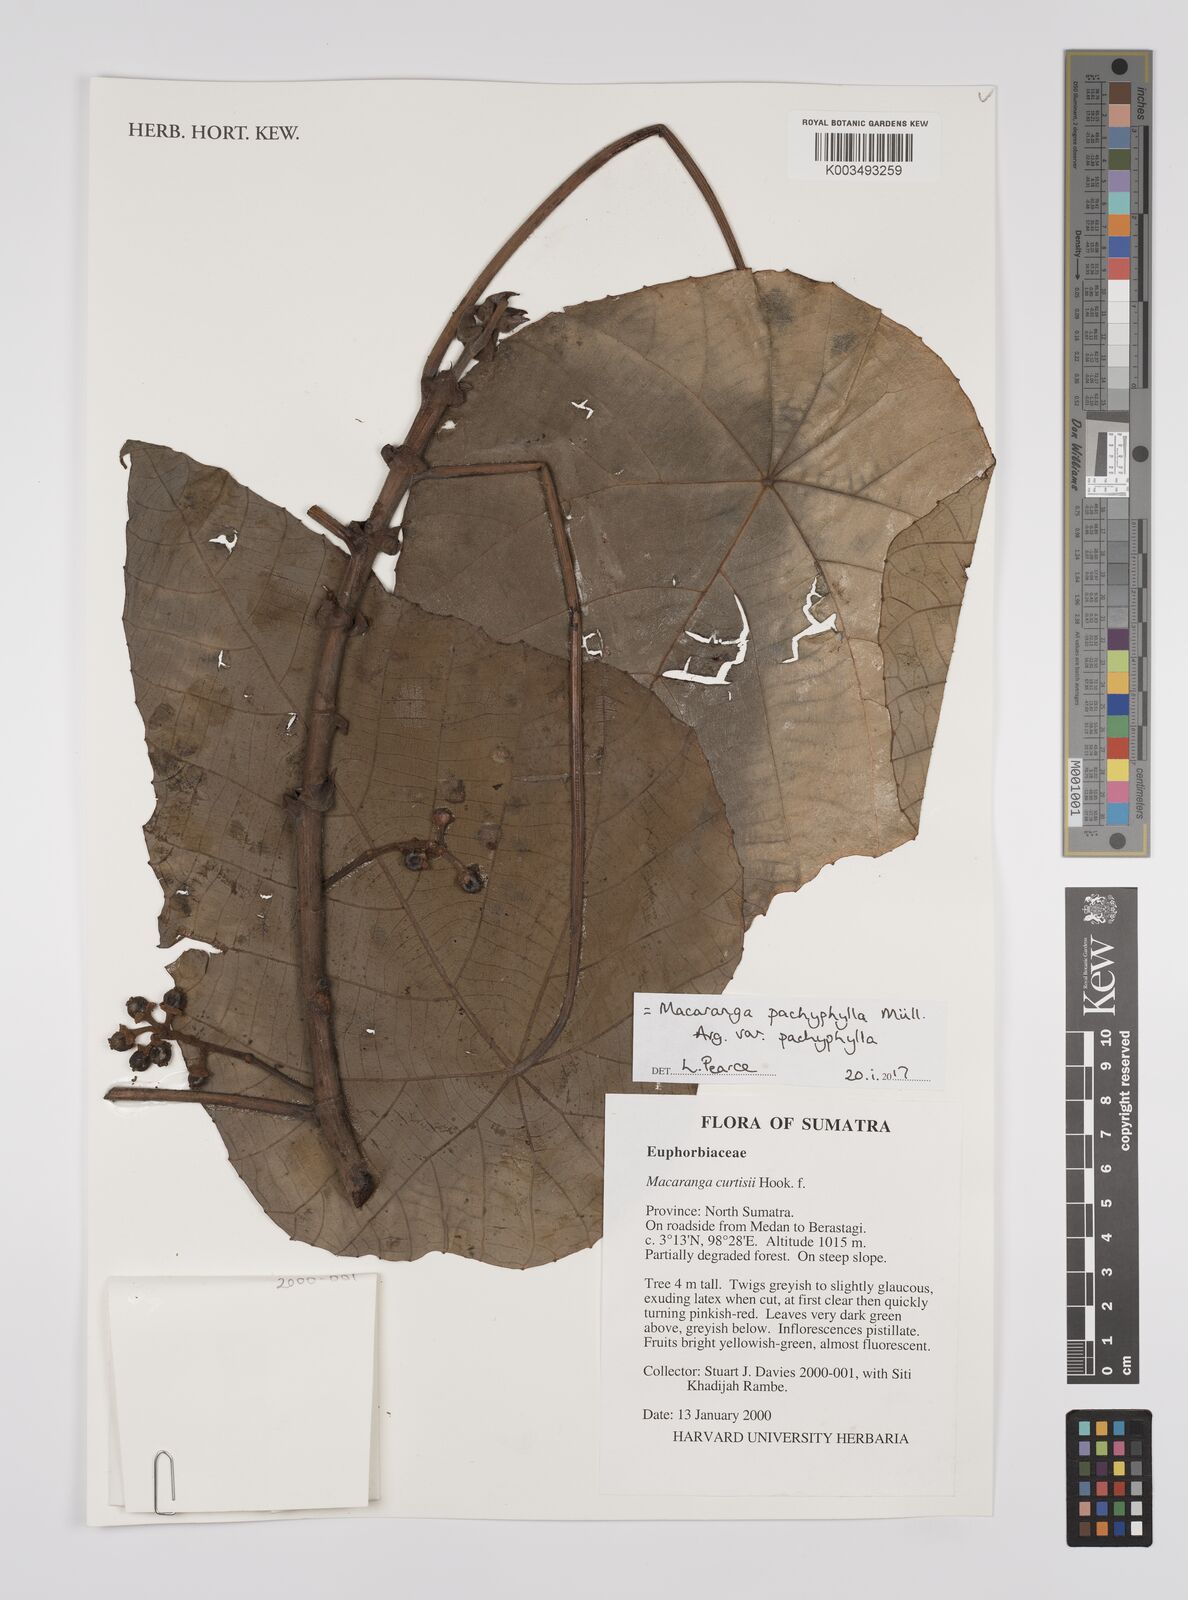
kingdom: Plantae
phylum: Tracheophyta
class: Magnoliopsida
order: Malpighiales
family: Euphorbiaceae
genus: Macaranga
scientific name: Macaranga pachyphylla
